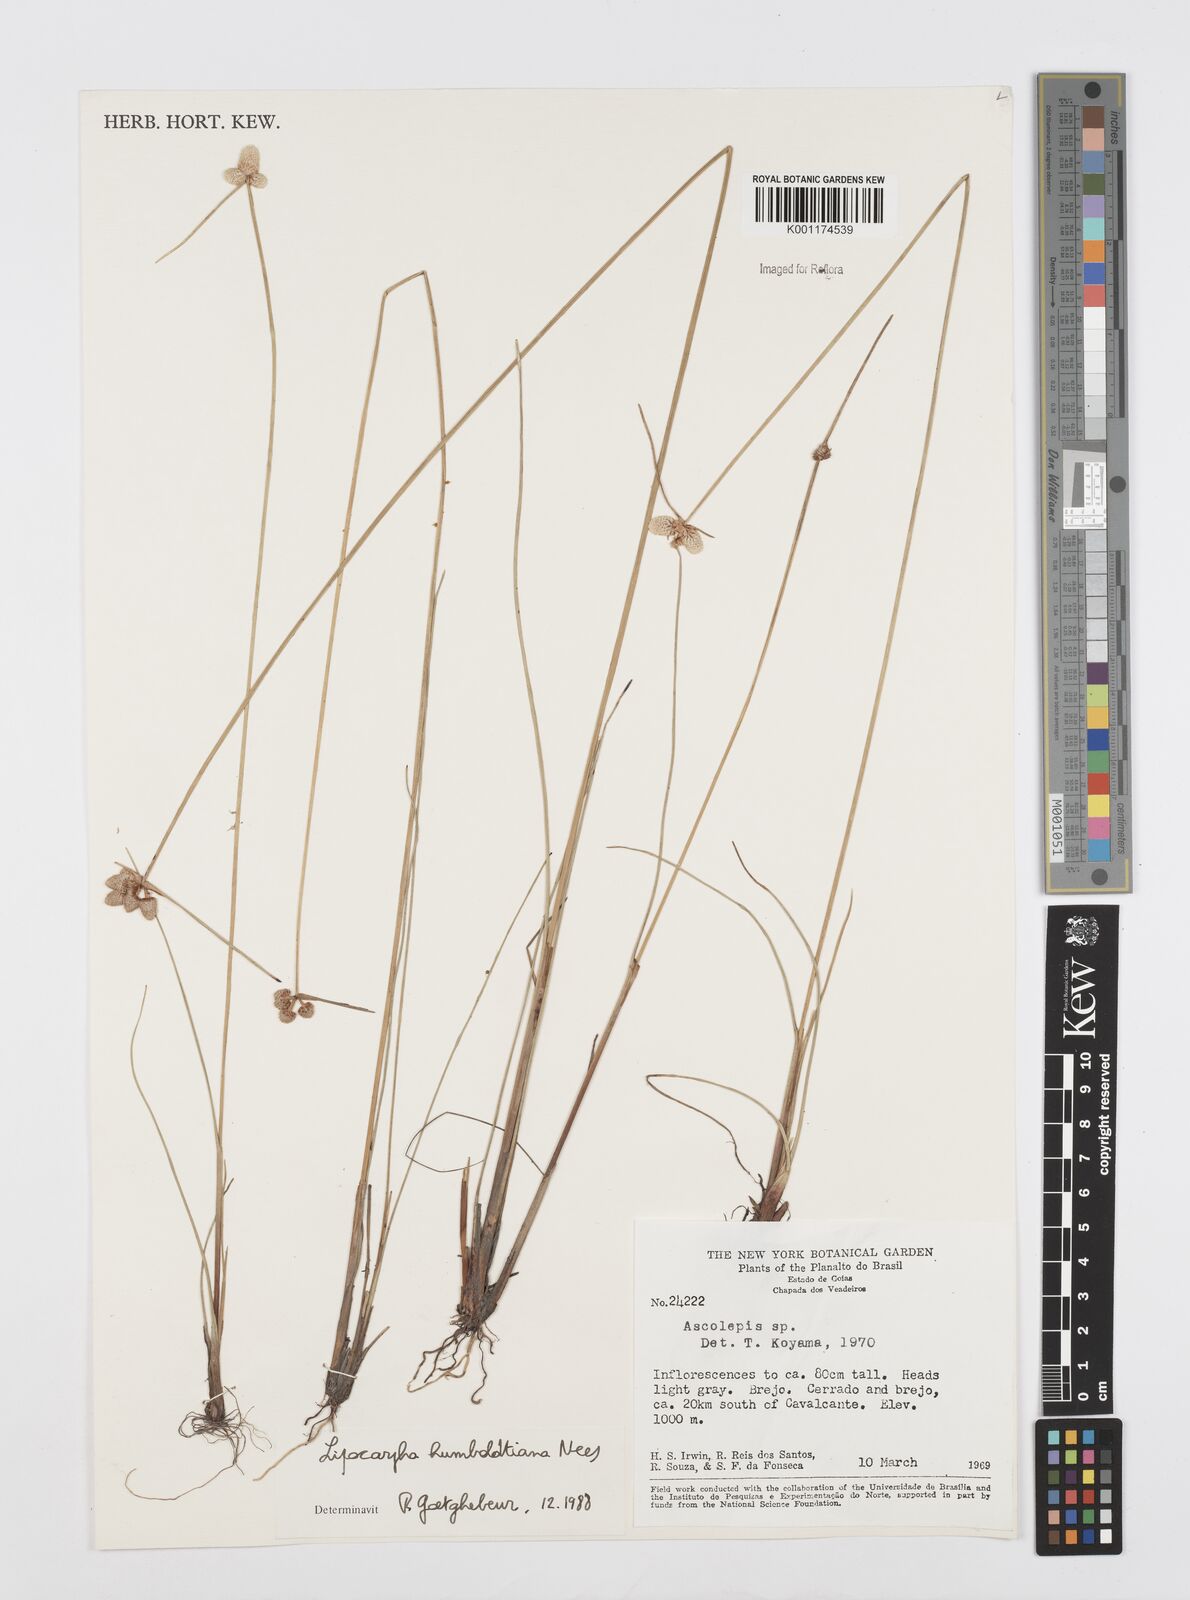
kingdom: Plantae
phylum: Tracheophyta
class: Liliopsida
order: Poales
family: Cyperaceae
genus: Cyperus
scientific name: Cyperus lanceolatus
